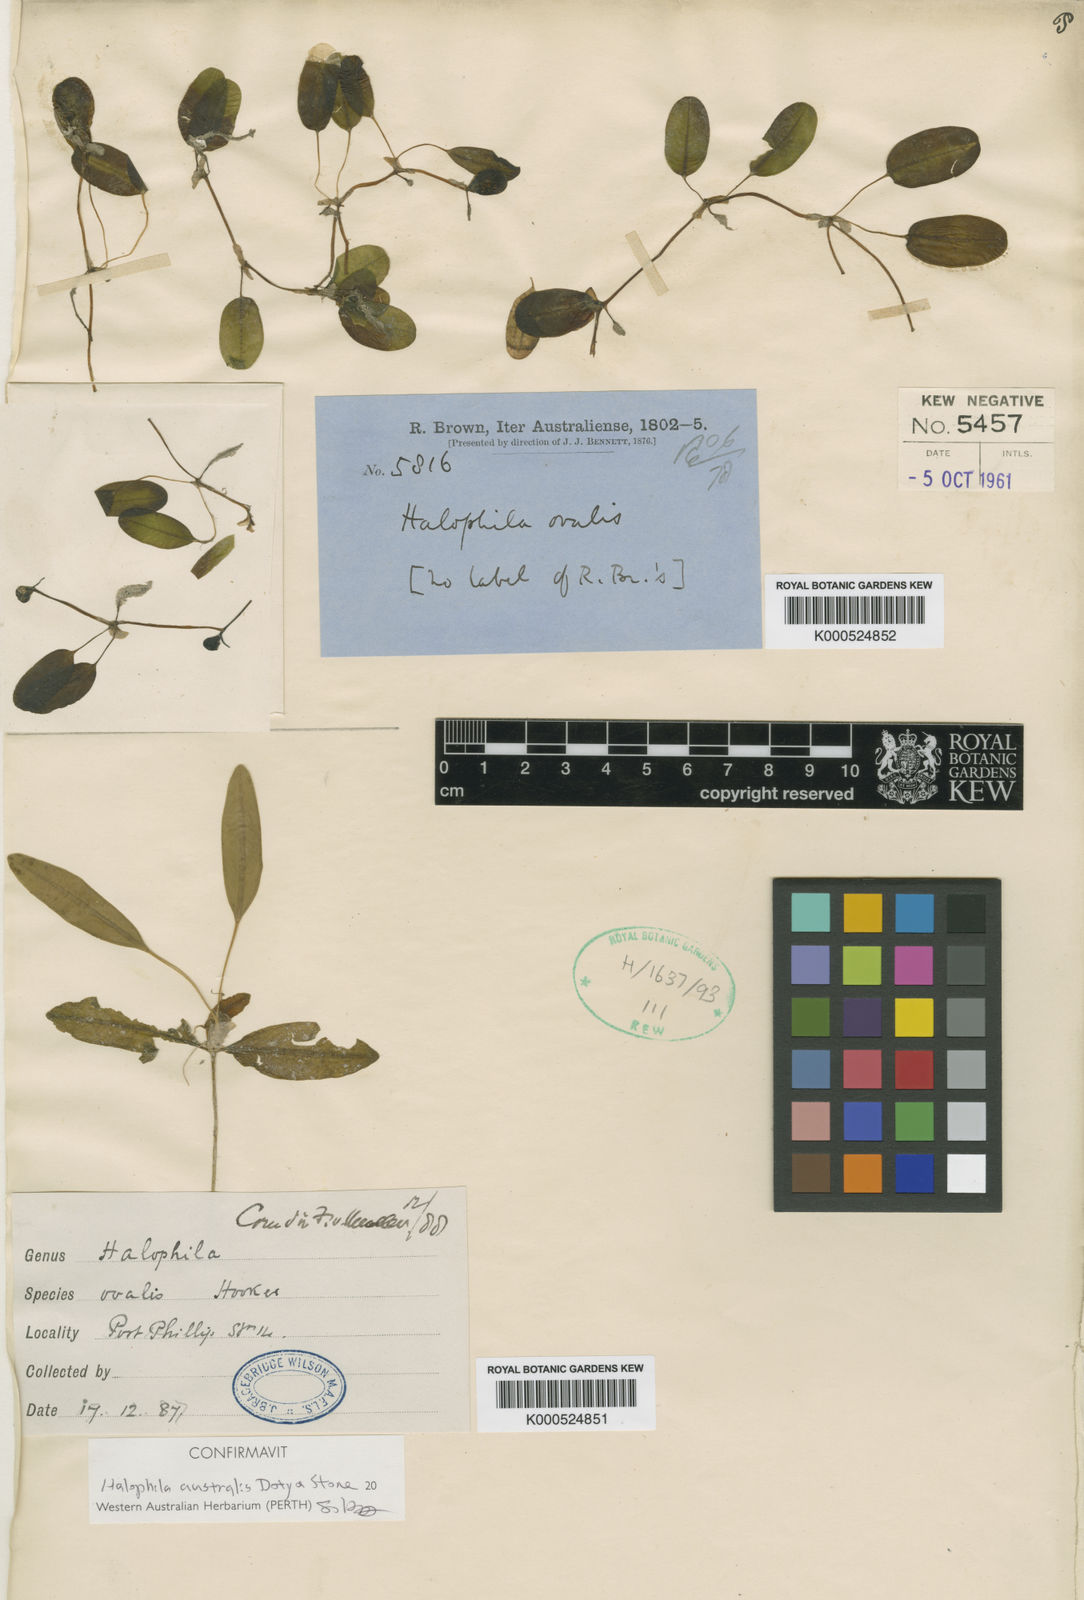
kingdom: Plantae
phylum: Tracheophyta
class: Liliopsida
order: Alismatales
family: Hydrocharitaceae
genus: Halophila
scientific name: Halophila australis
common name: Species code: ha
